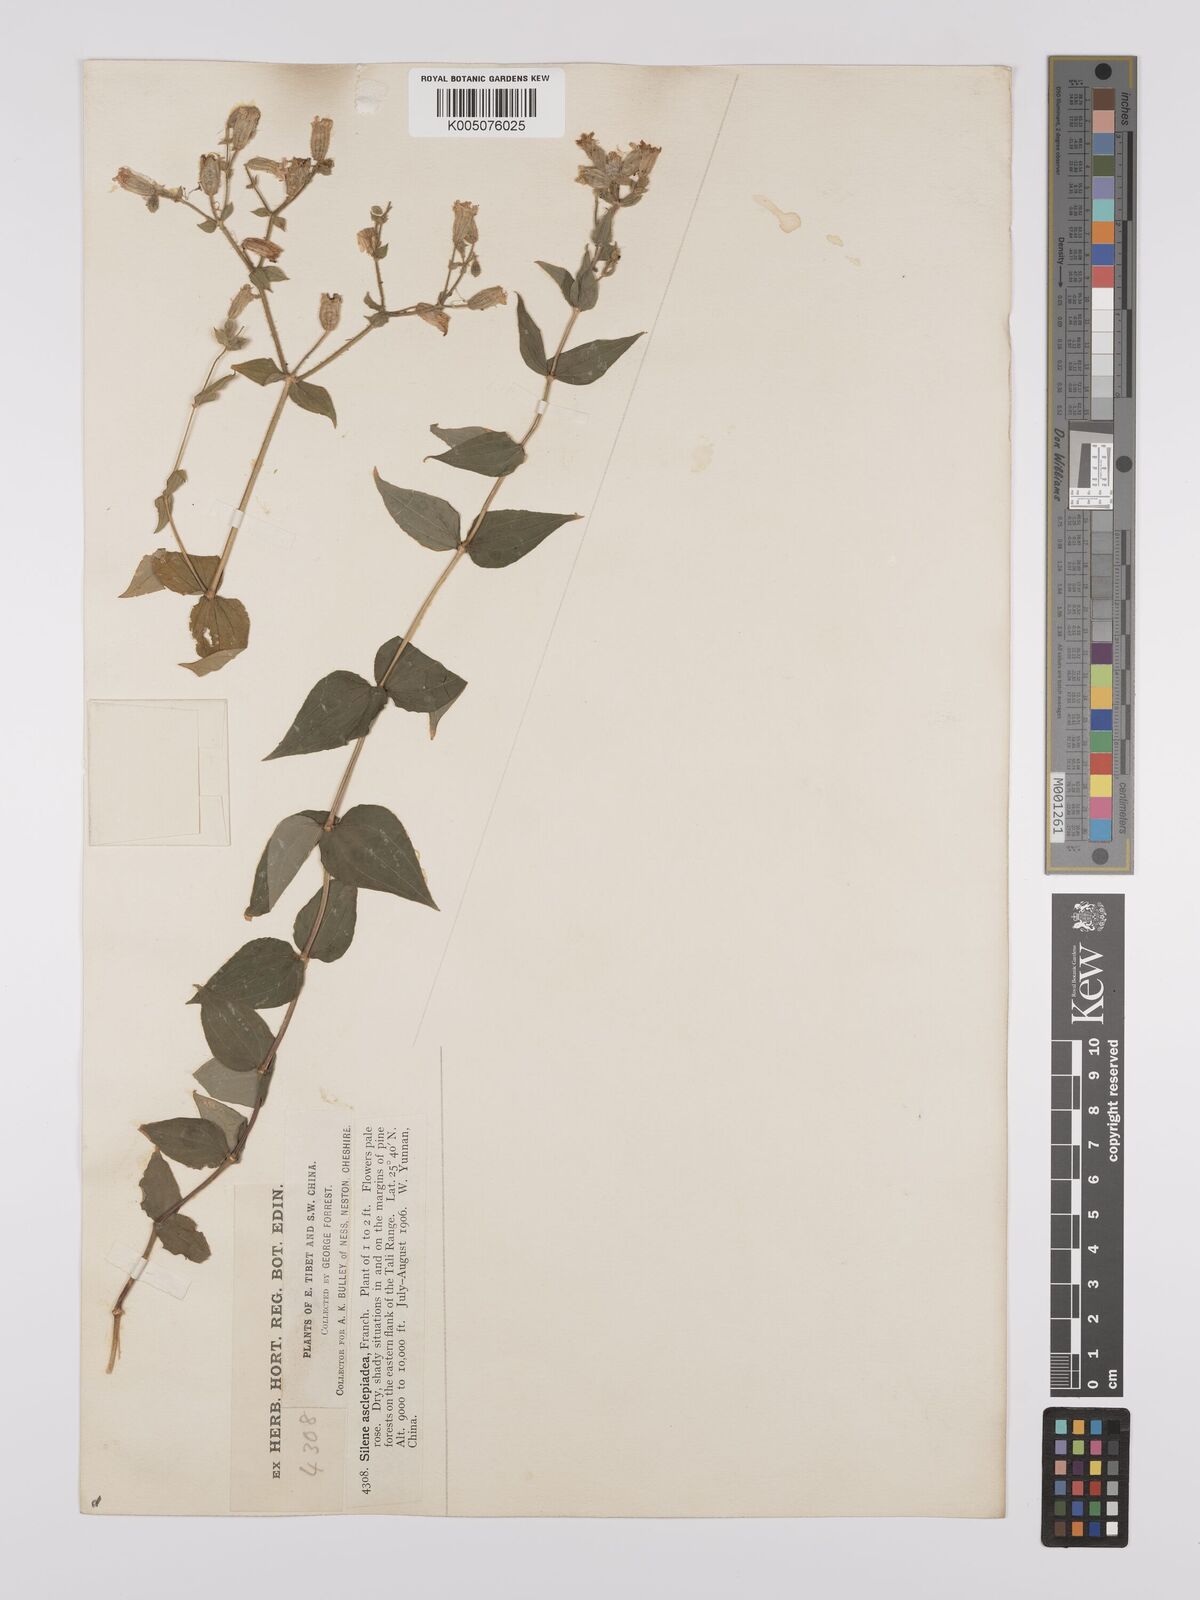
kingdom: Plantae
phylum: Tracheophyta
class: Magnoliopsida
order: Caryophyllales
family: Caryophyllaceae
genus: Silene
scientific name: Silene asclepiadea
